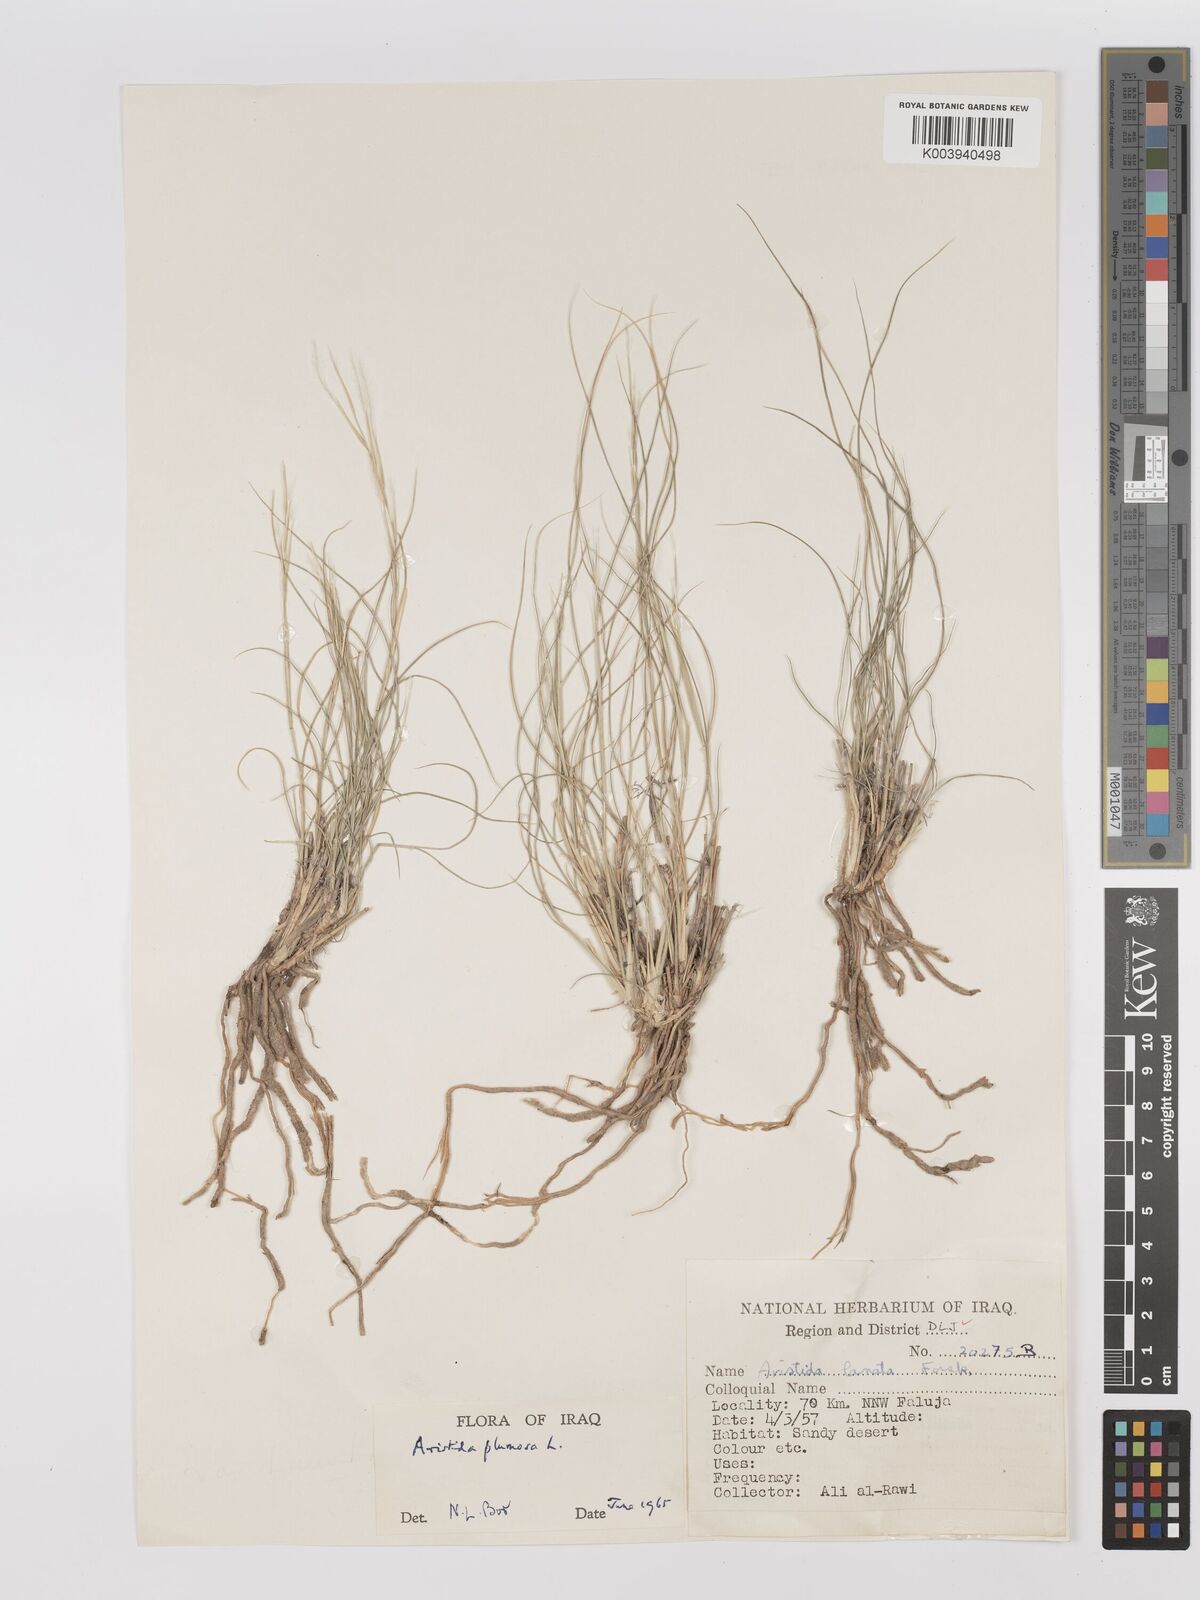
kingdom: Plantae
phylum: Tracheophyta
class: Liliopsida
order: Poales
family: Poaceae
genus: Stipagrostis
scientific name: Stipagrostis plumosa
